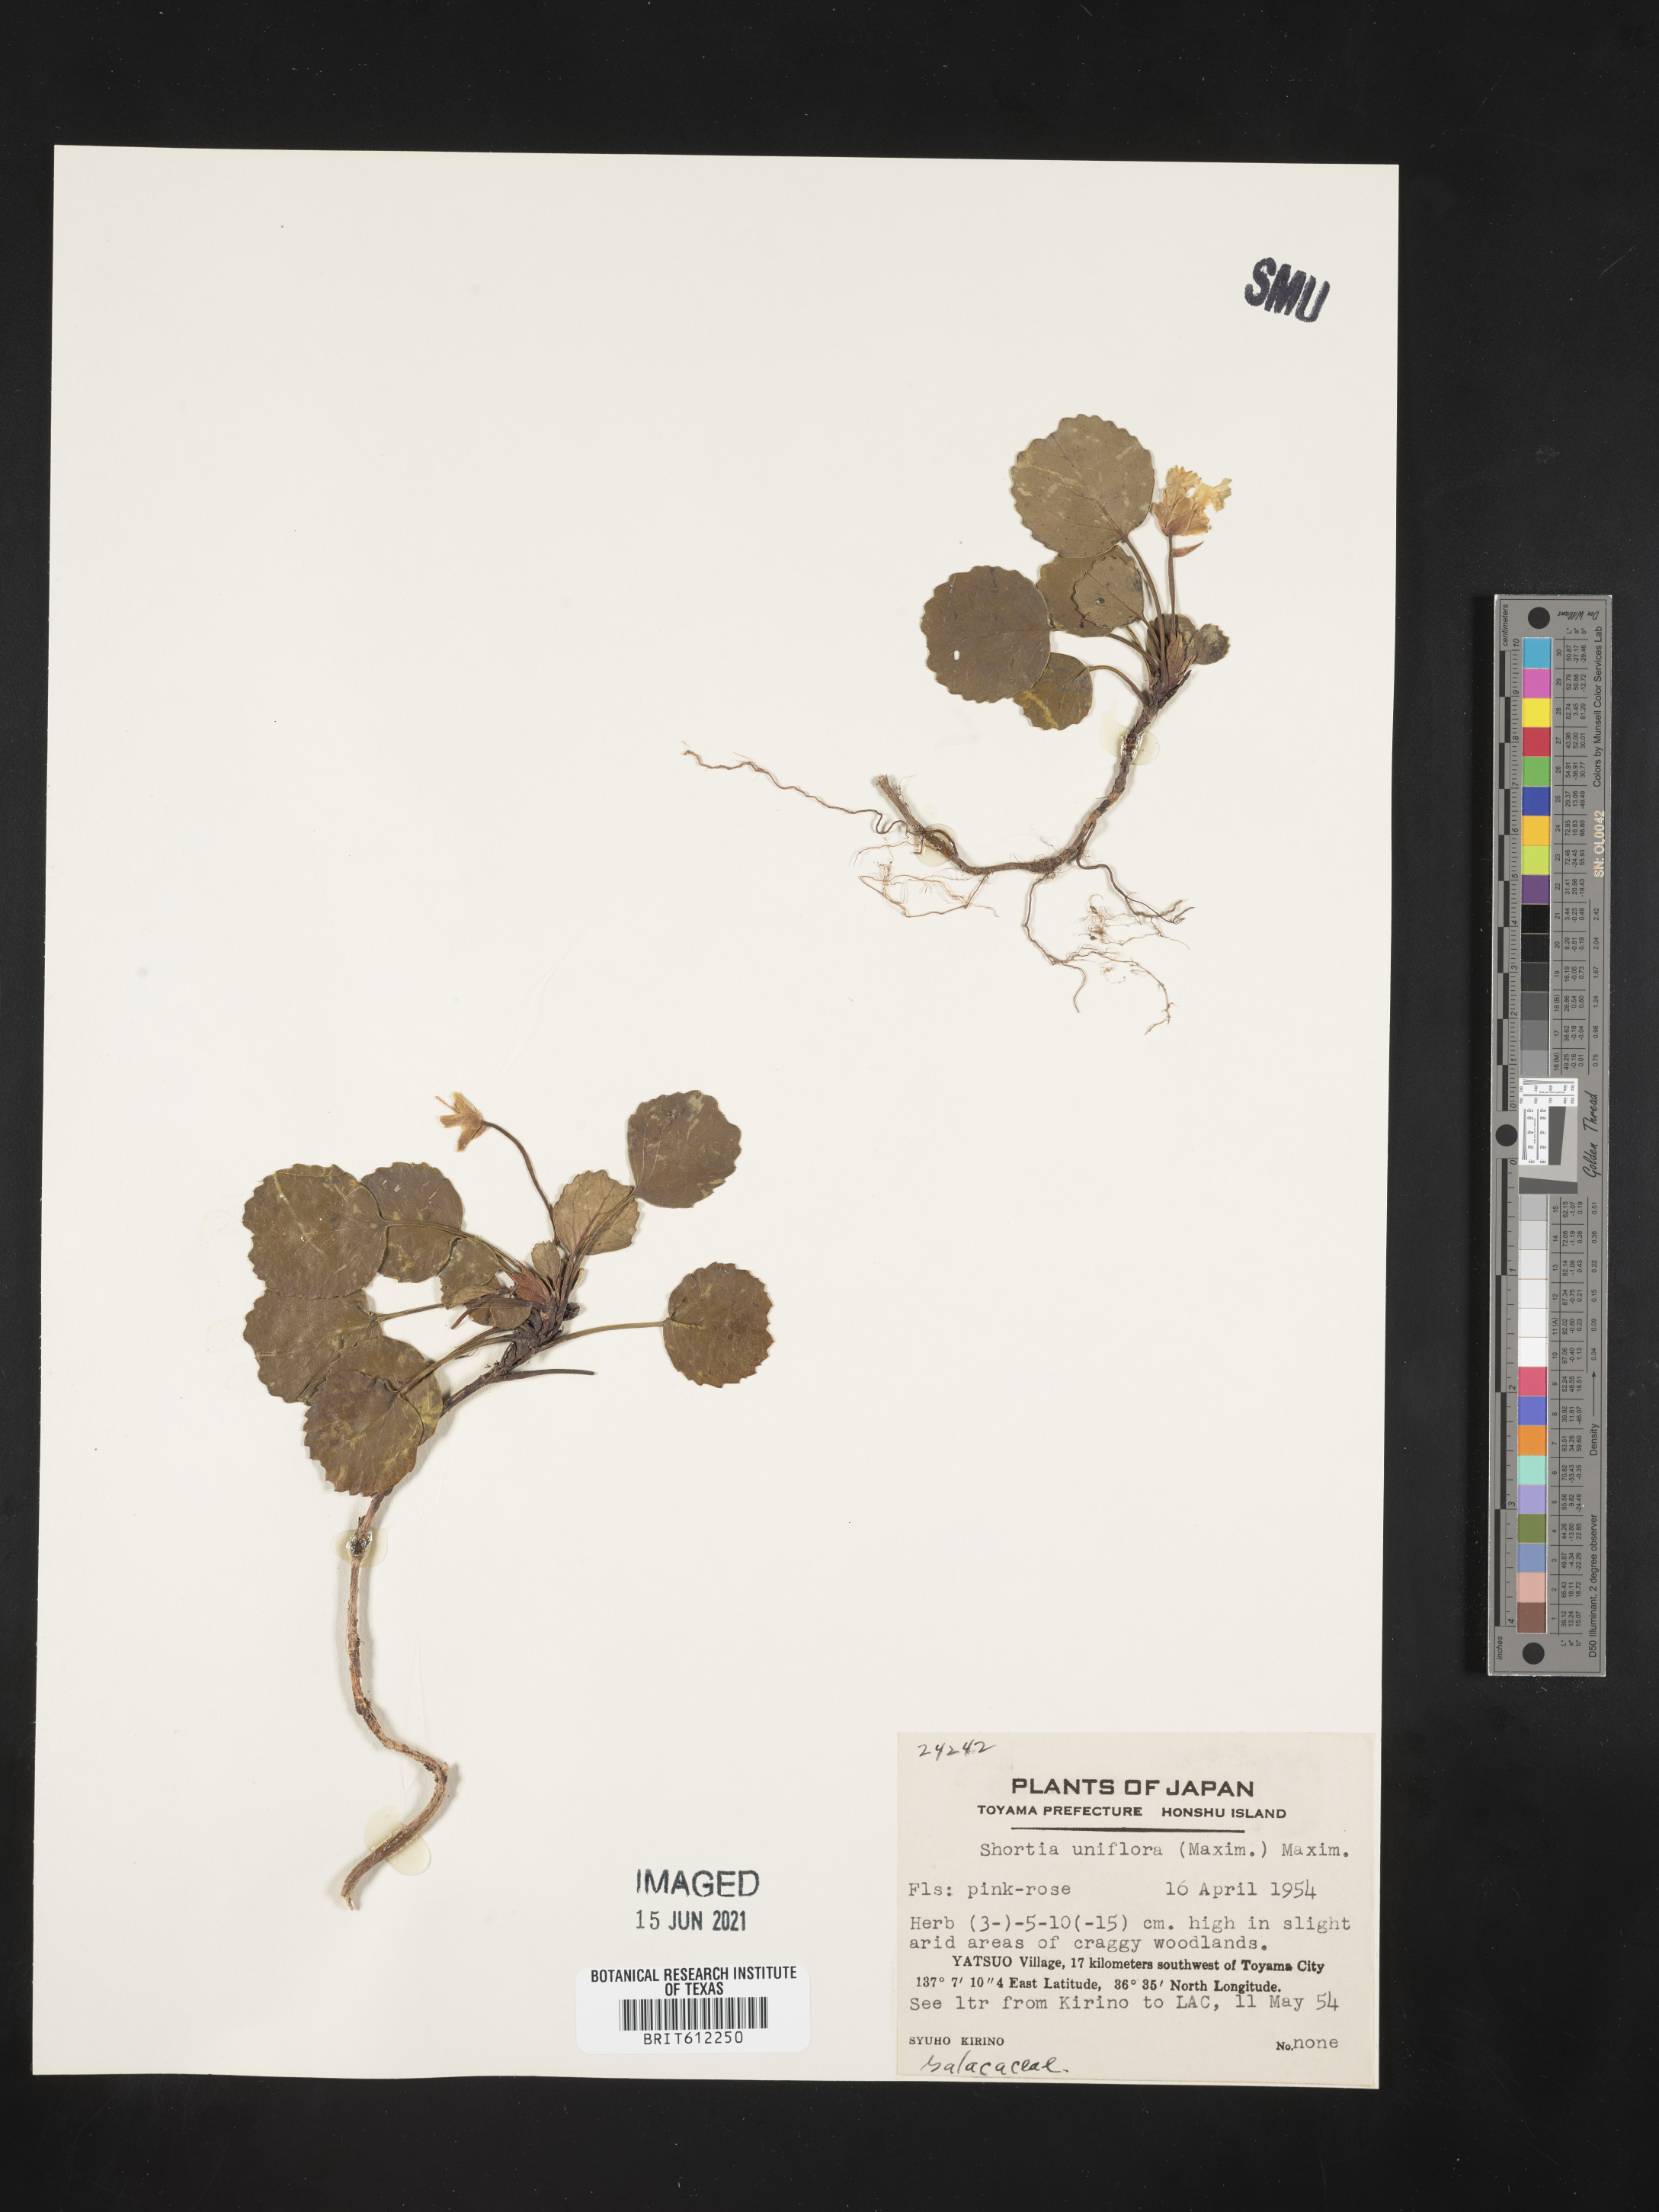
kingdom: Plantae
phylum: Tracheophyta
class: Magnoliopsida
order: Ericales
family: Diapensiaceae
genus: Shortia
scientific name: Shortia uniflora
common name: Nippon bells
